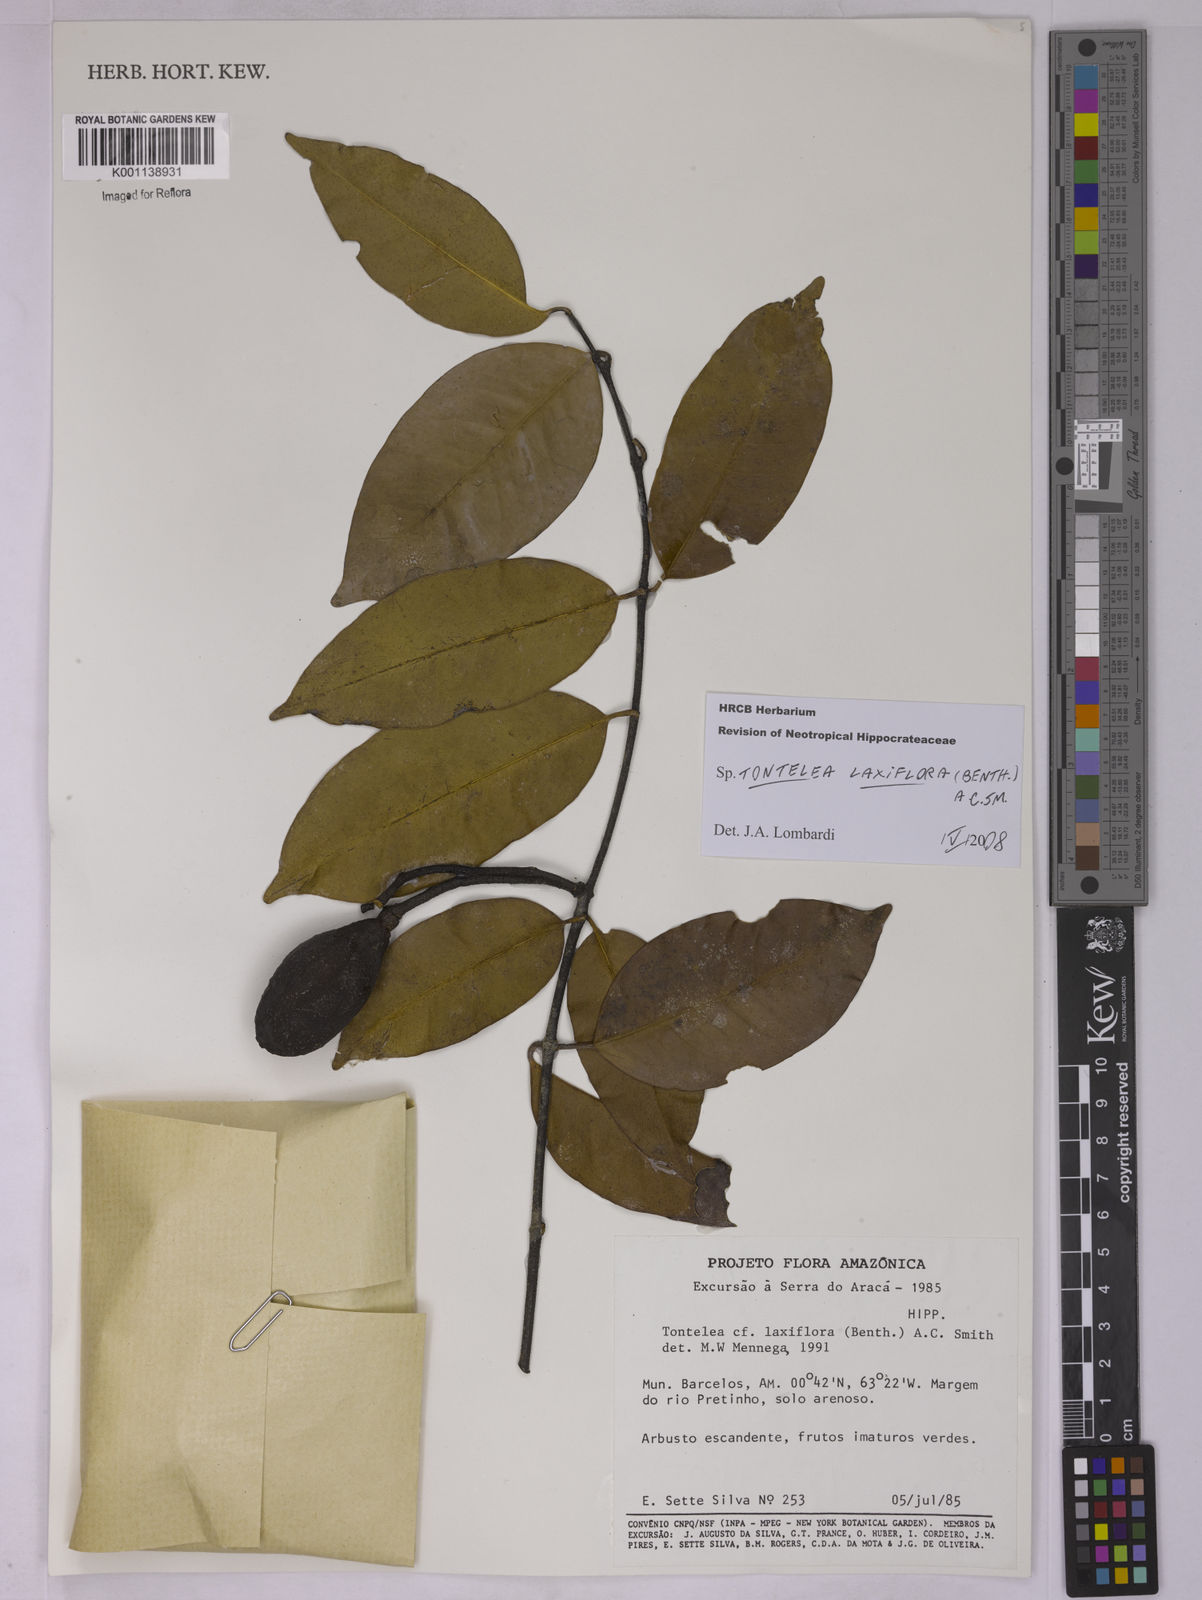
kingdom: Plantae
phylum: Tracheophyta
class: Magnoliopsida
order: Celastrales
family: Celastraceae
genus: Tontelea
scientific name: Tontelea laxiflora
